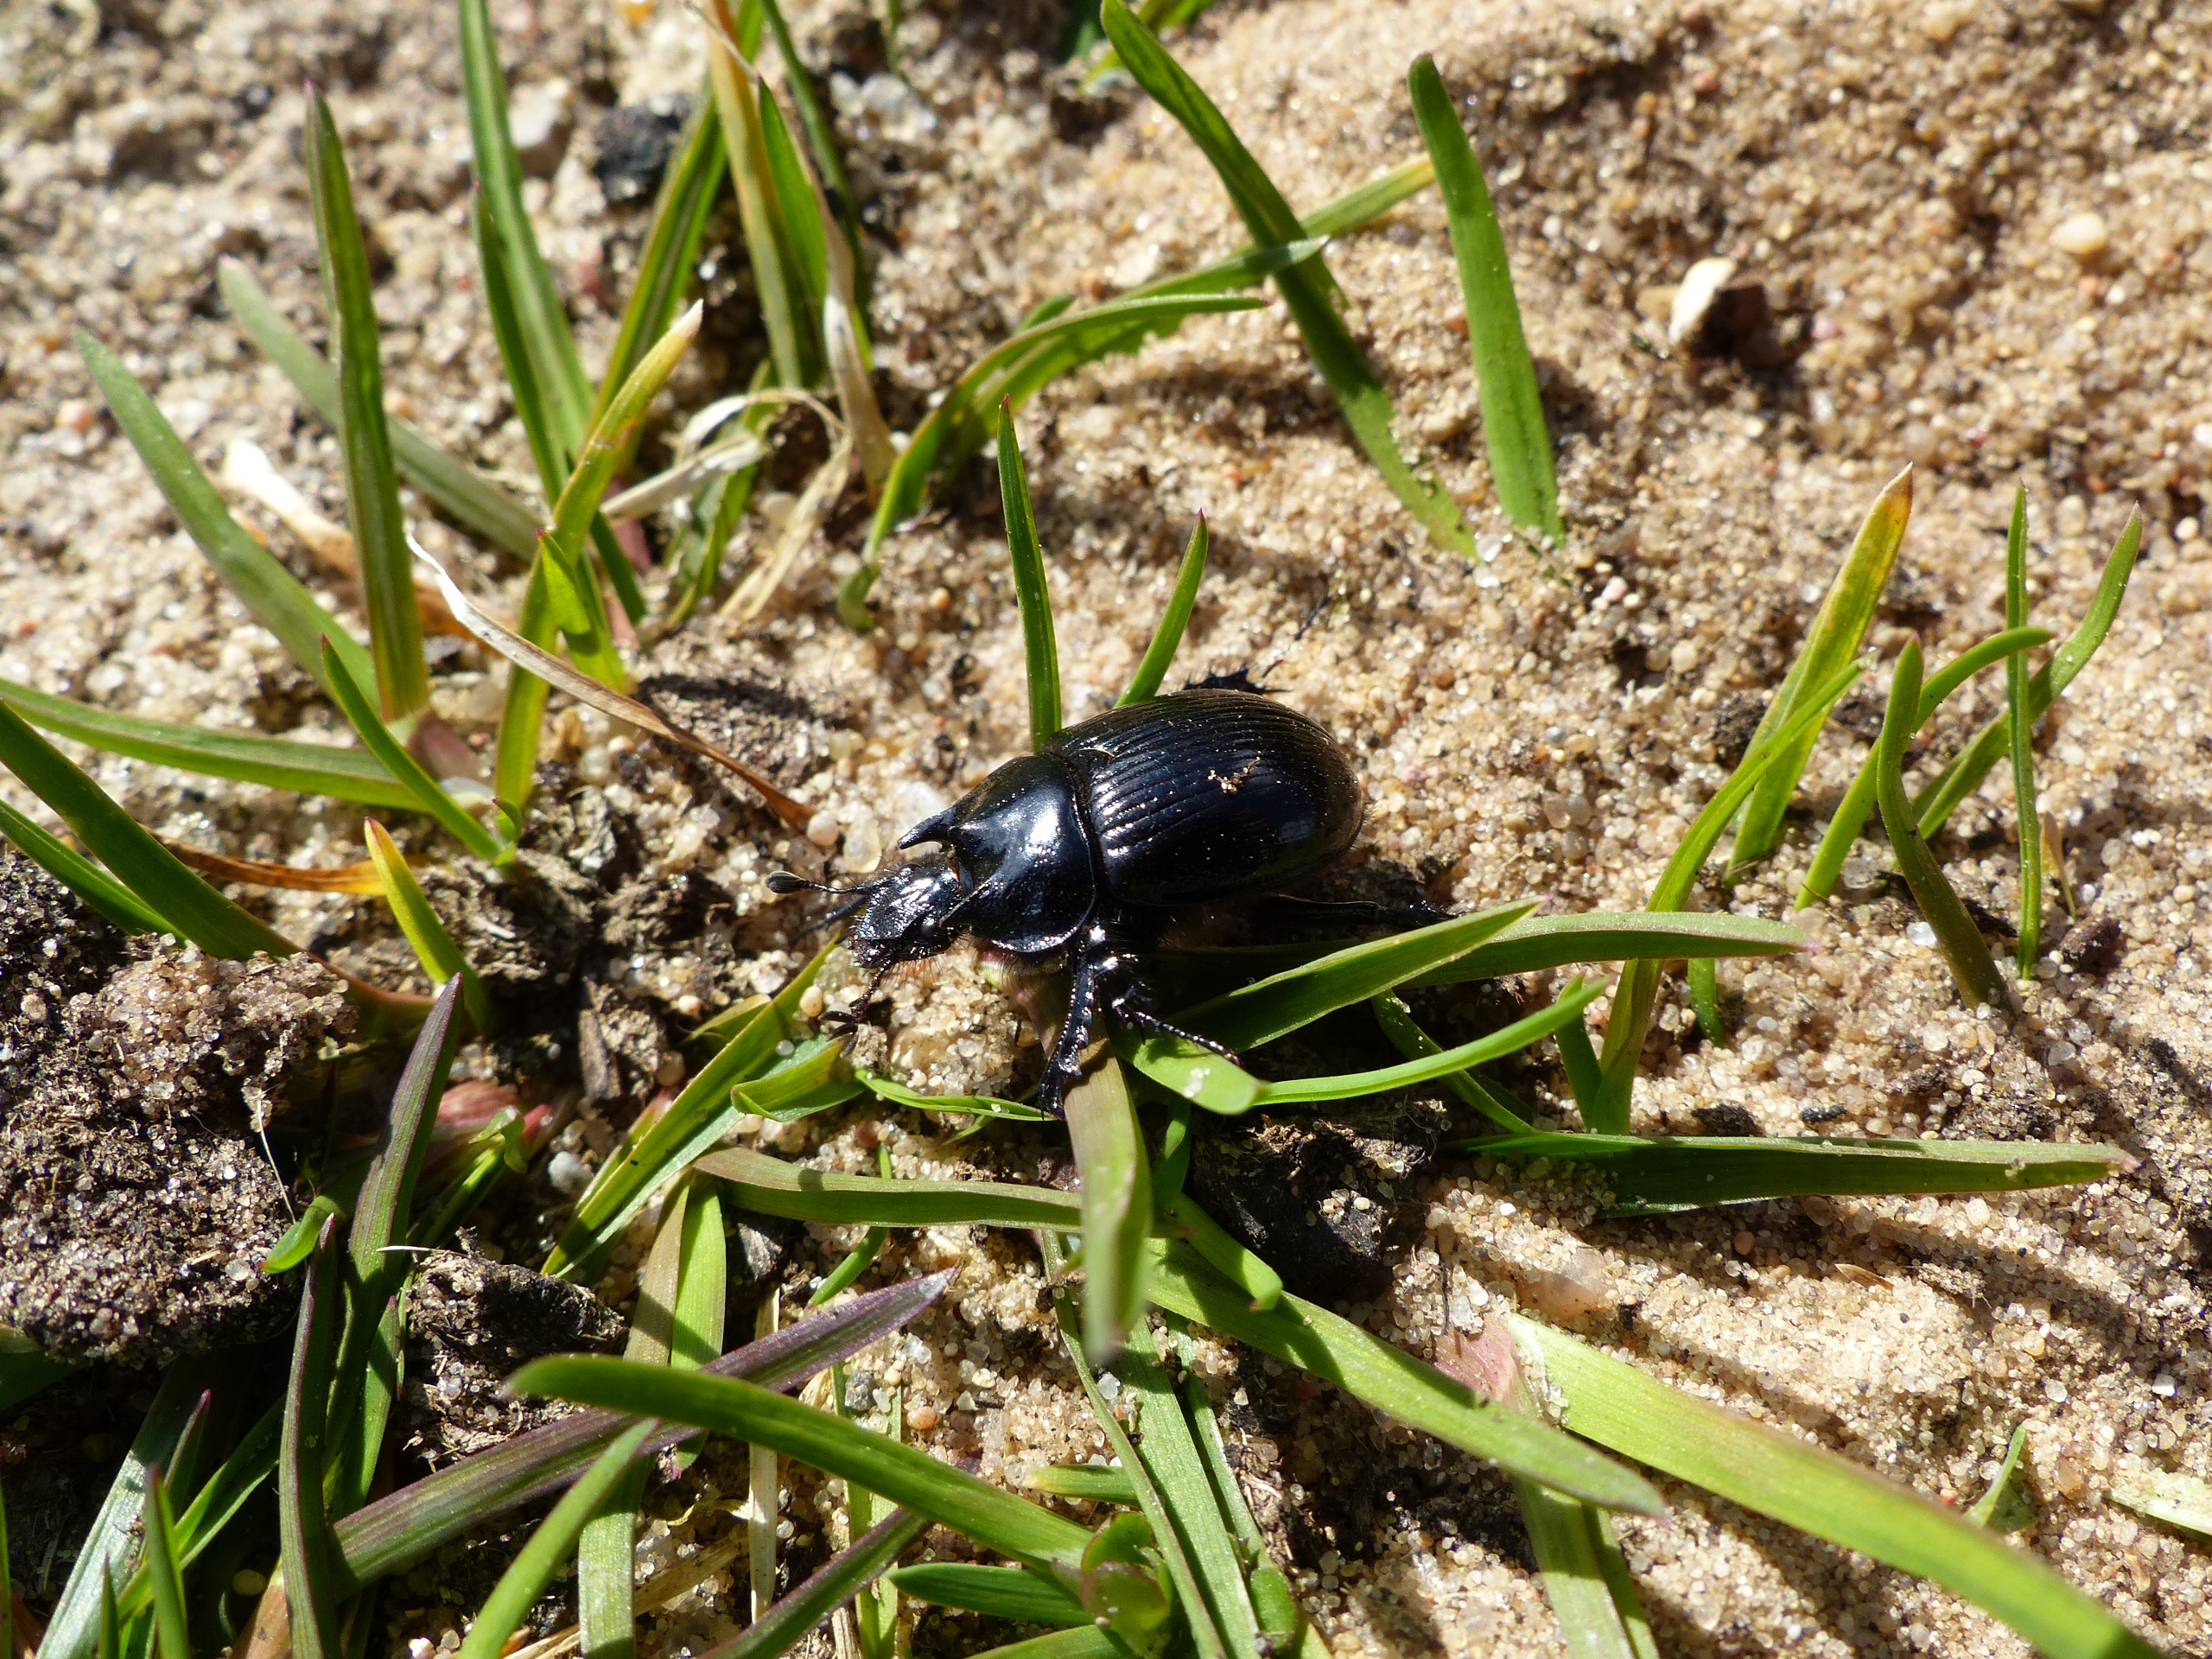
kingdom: Animalia
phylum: Arthropoda
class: Insecta
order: Coleoptera
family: Geotrupidae
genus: Typhaeus
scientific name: Typhaeus typhoeus
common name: Trehornet skarnbasse
